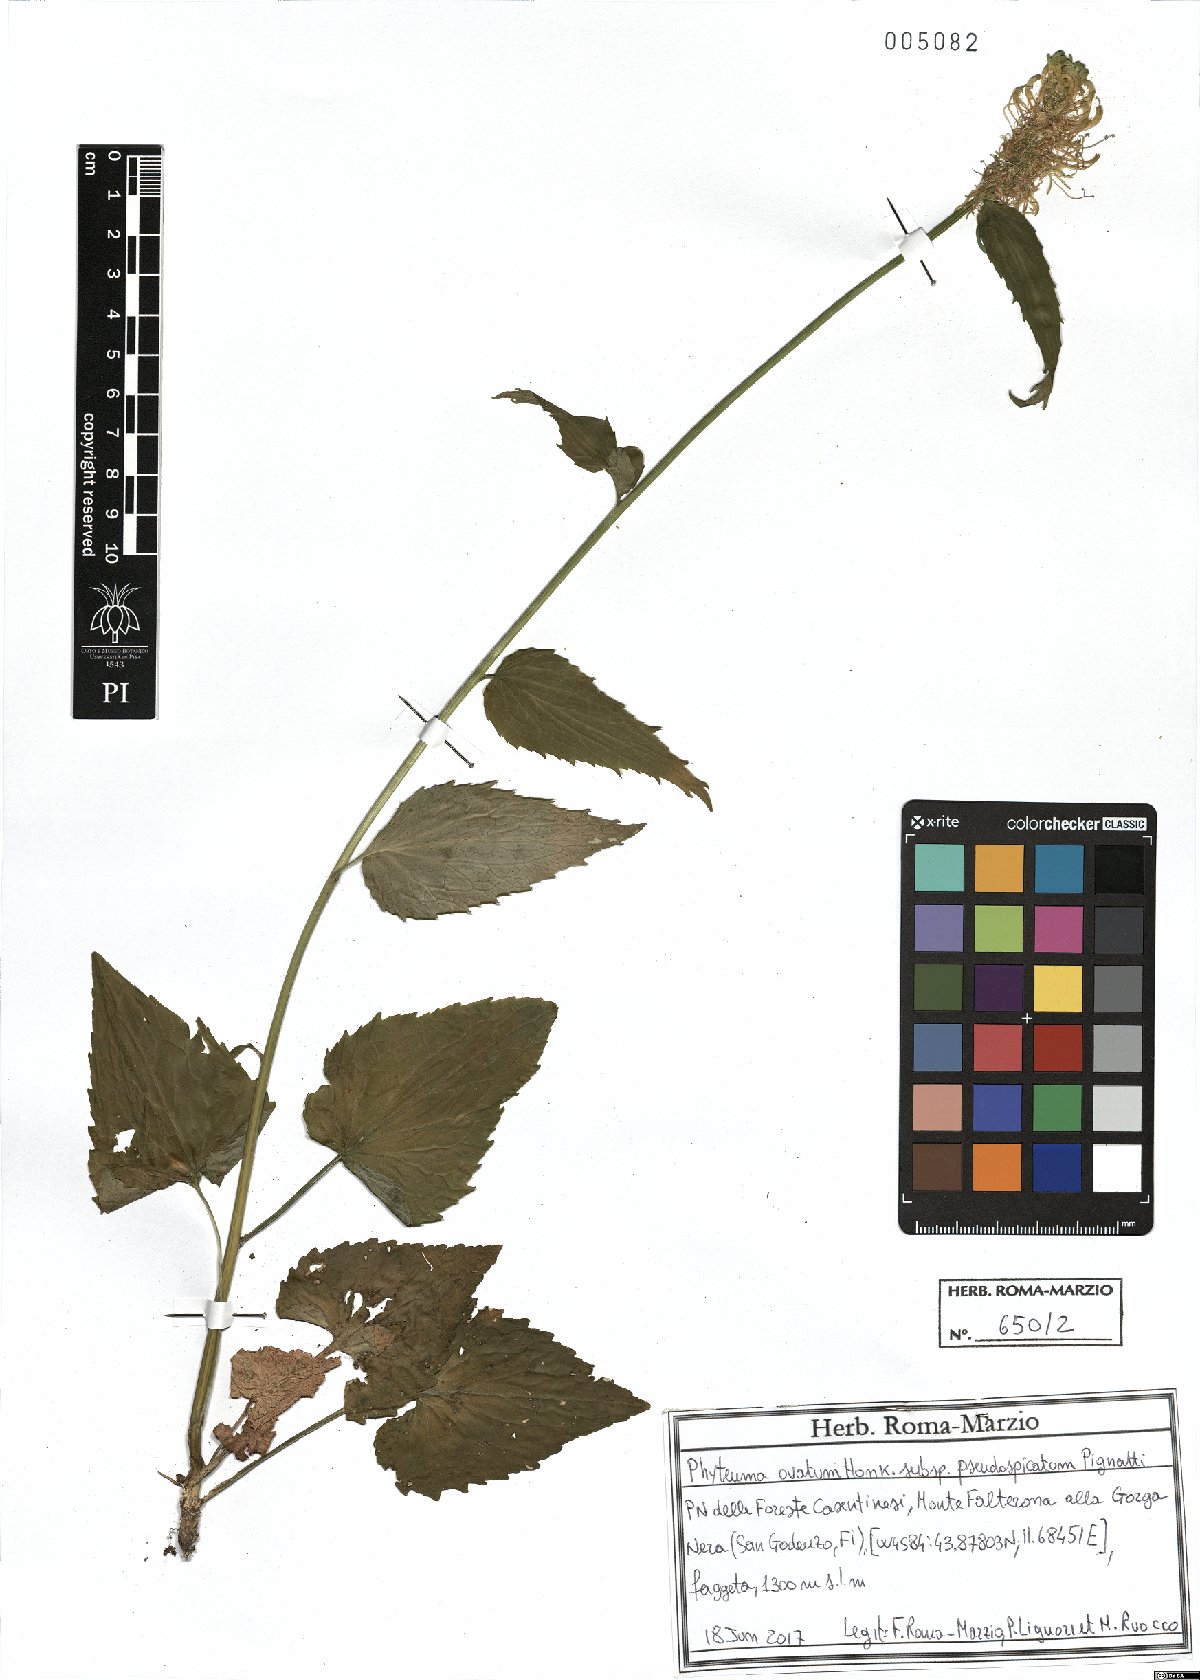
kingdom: Plantae
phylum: Tracheophyta
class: Magnoliopsida
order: Asterales
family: Campanulaceae
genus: Phyteuma
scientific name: Phyteuma ovatum
